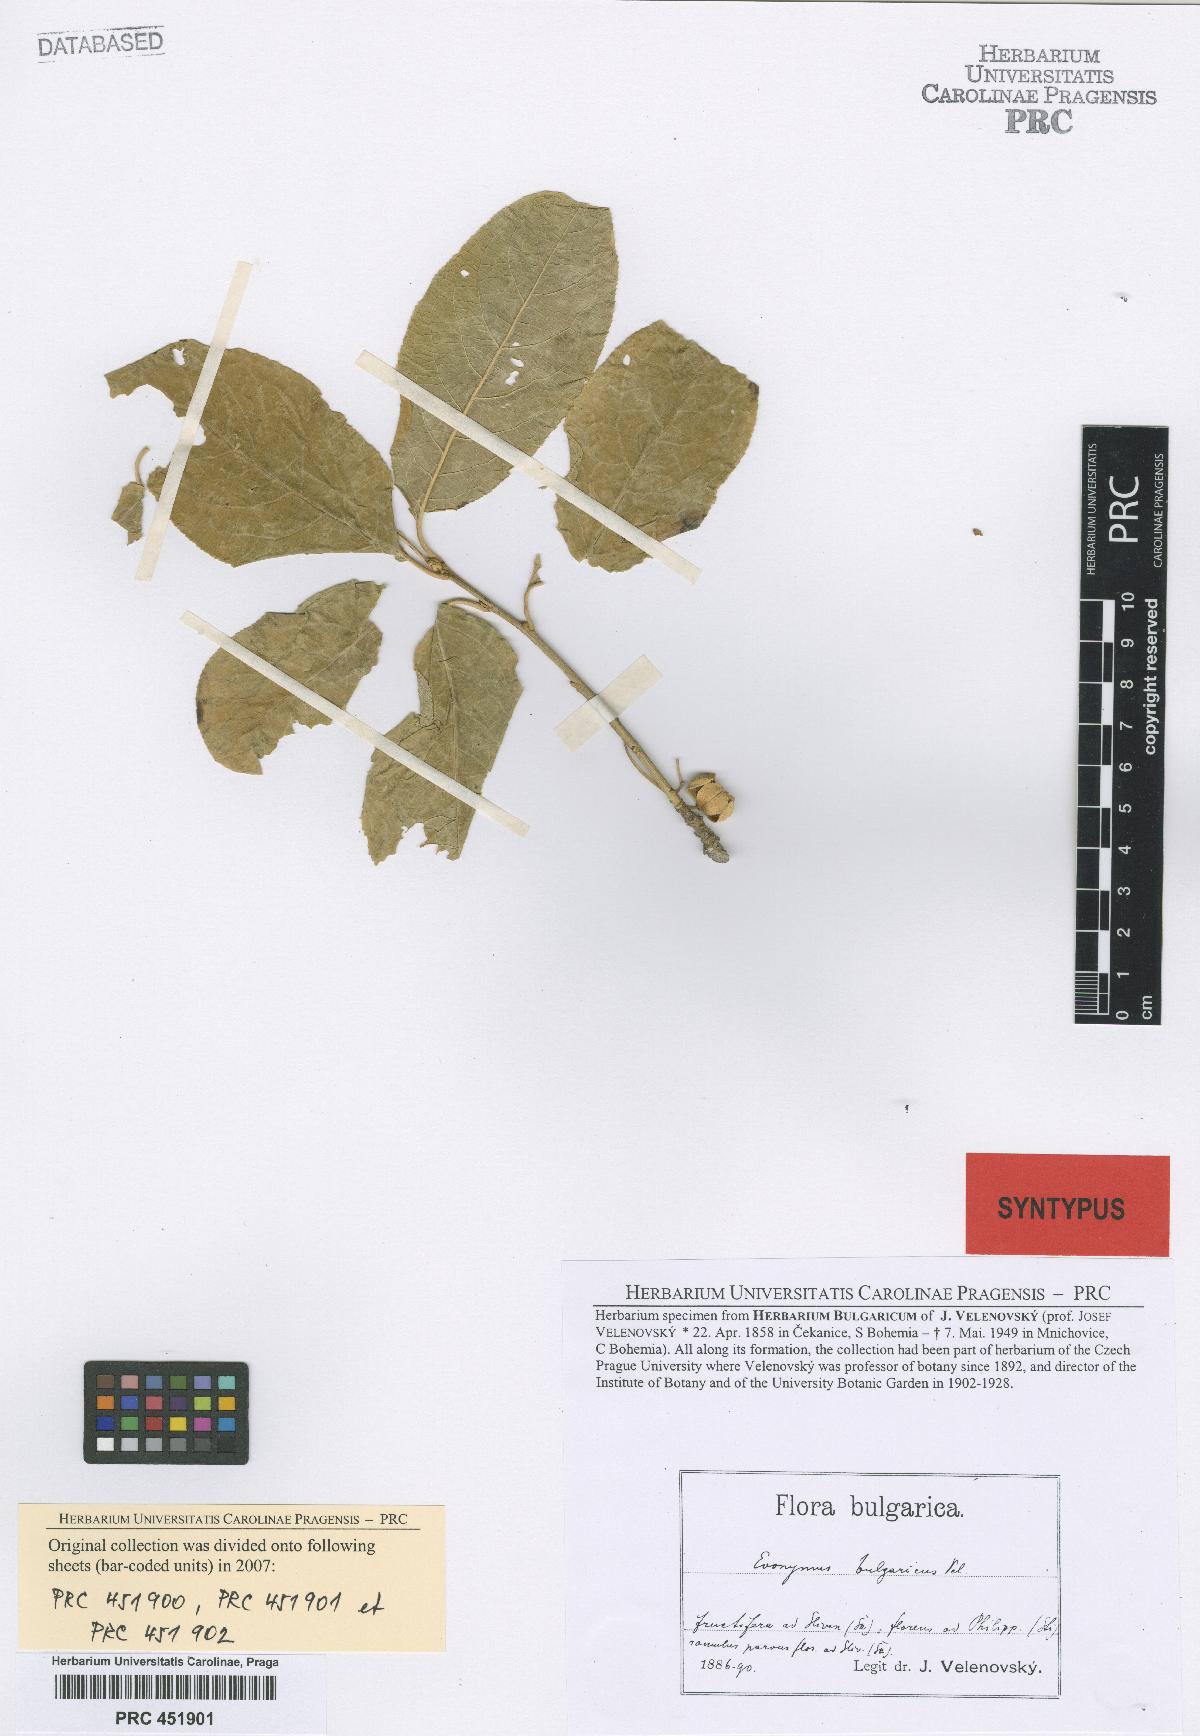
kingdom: Plantae
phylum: Tracheophyta
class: Magnoliopsida
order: Celastrales
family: Celastraceae
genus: Euonymus
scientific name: Euonymus europaeus
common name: Spindle
